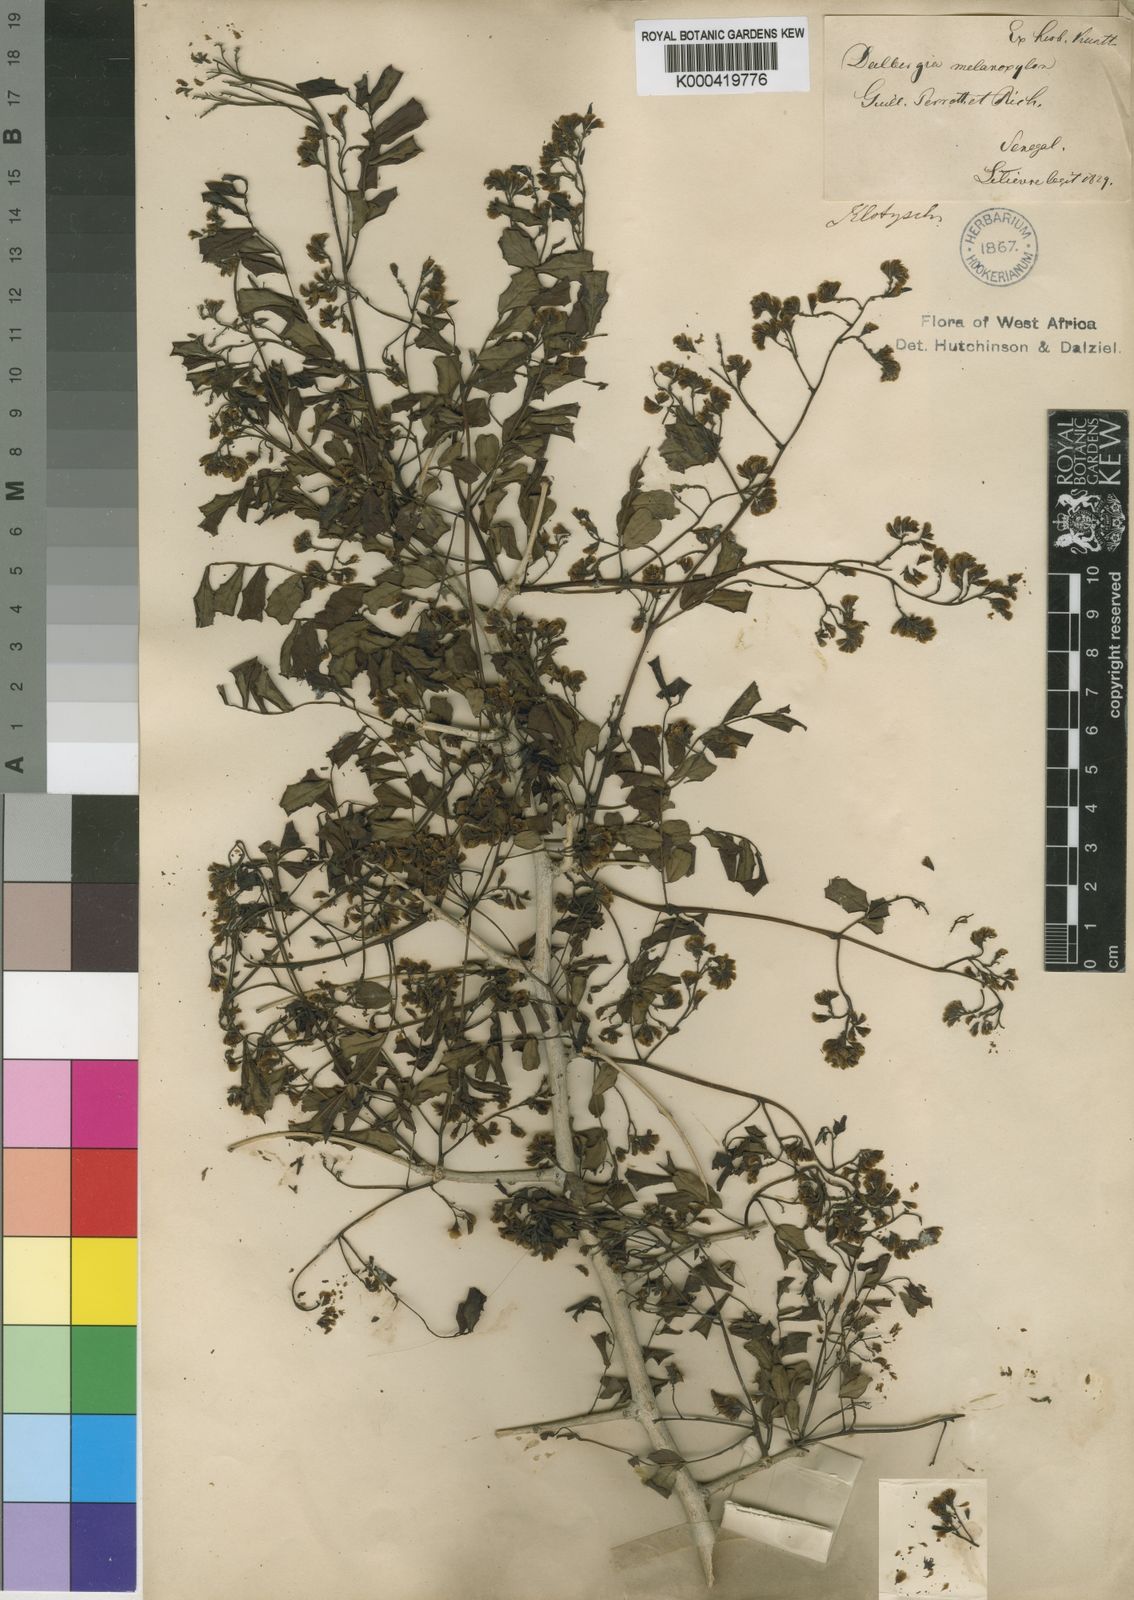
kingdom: Plantae
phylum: Tracheophyta
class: Magnoliopsida
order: Fabales
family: Fabaceae
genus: Dalbergia
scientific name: Dalbergia melanoxylon
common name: African blackwood
